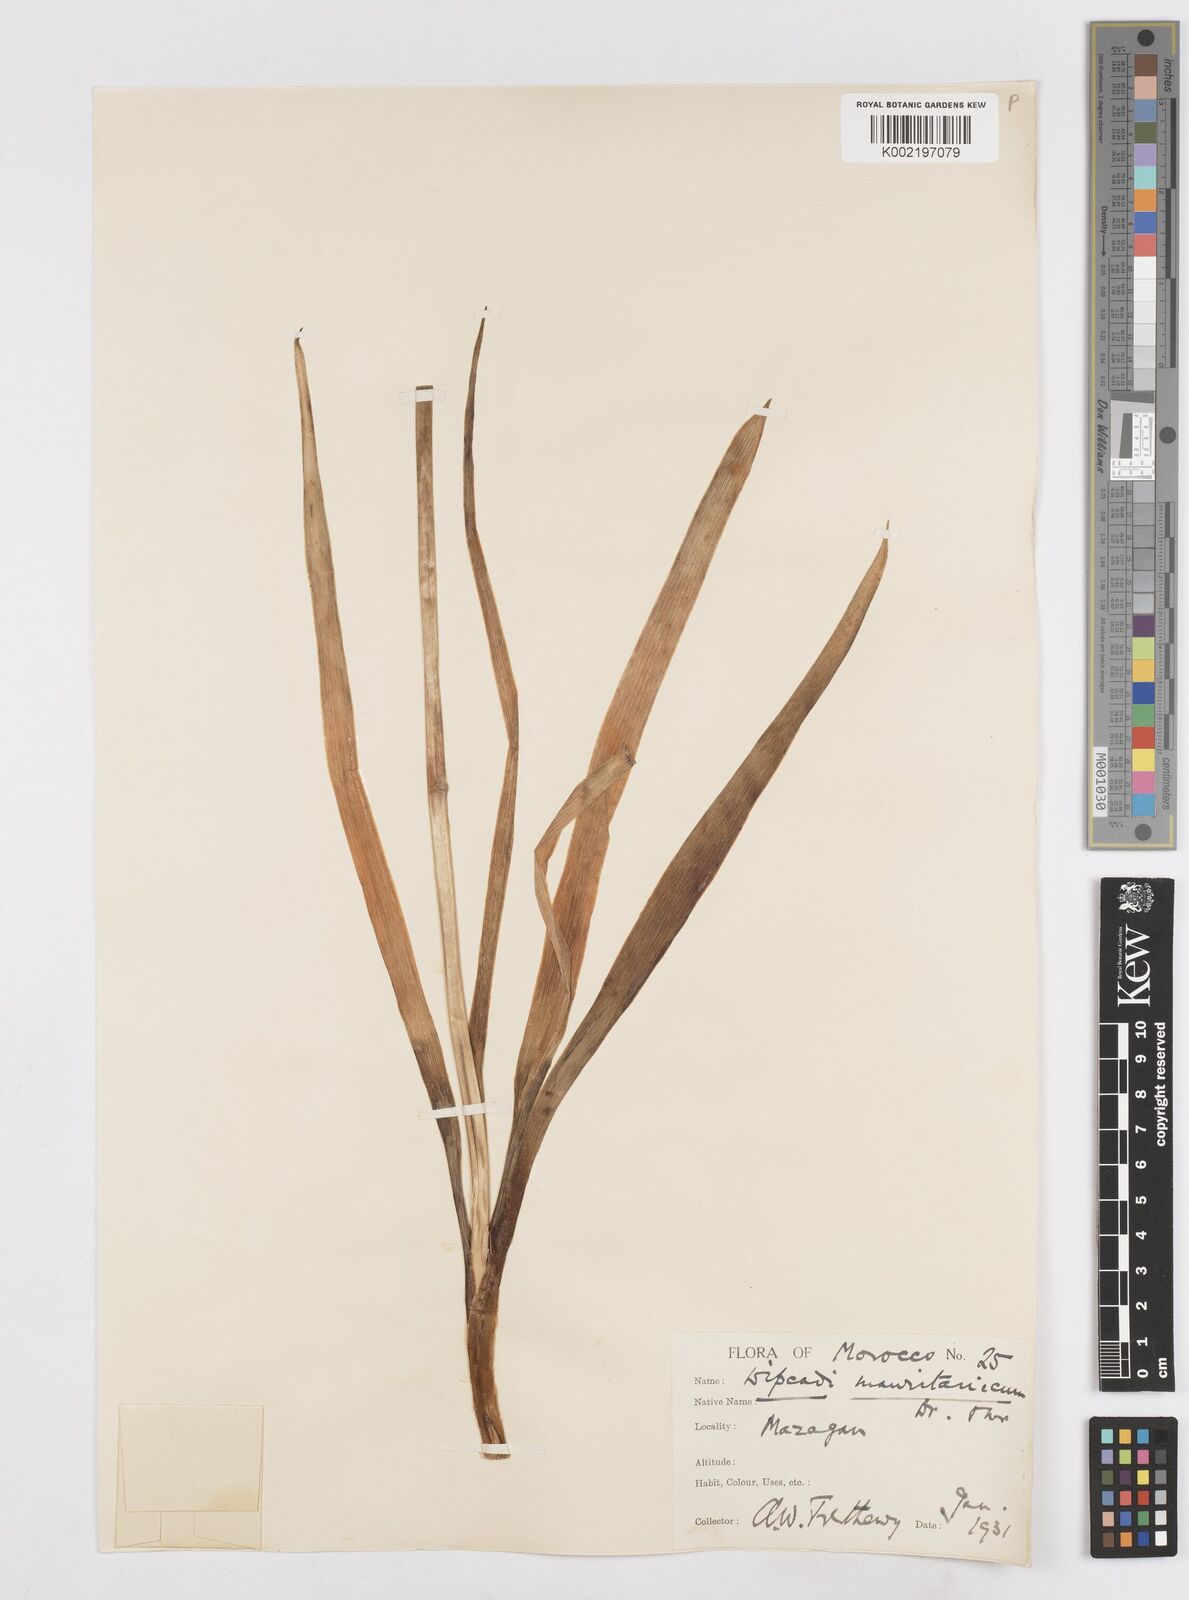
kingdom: Plantae
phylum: Tracheophyta
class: Liliopsida
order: Asparagales
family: Asparagaceae
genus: Dipcadi
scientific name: Dipcadi serotinum
